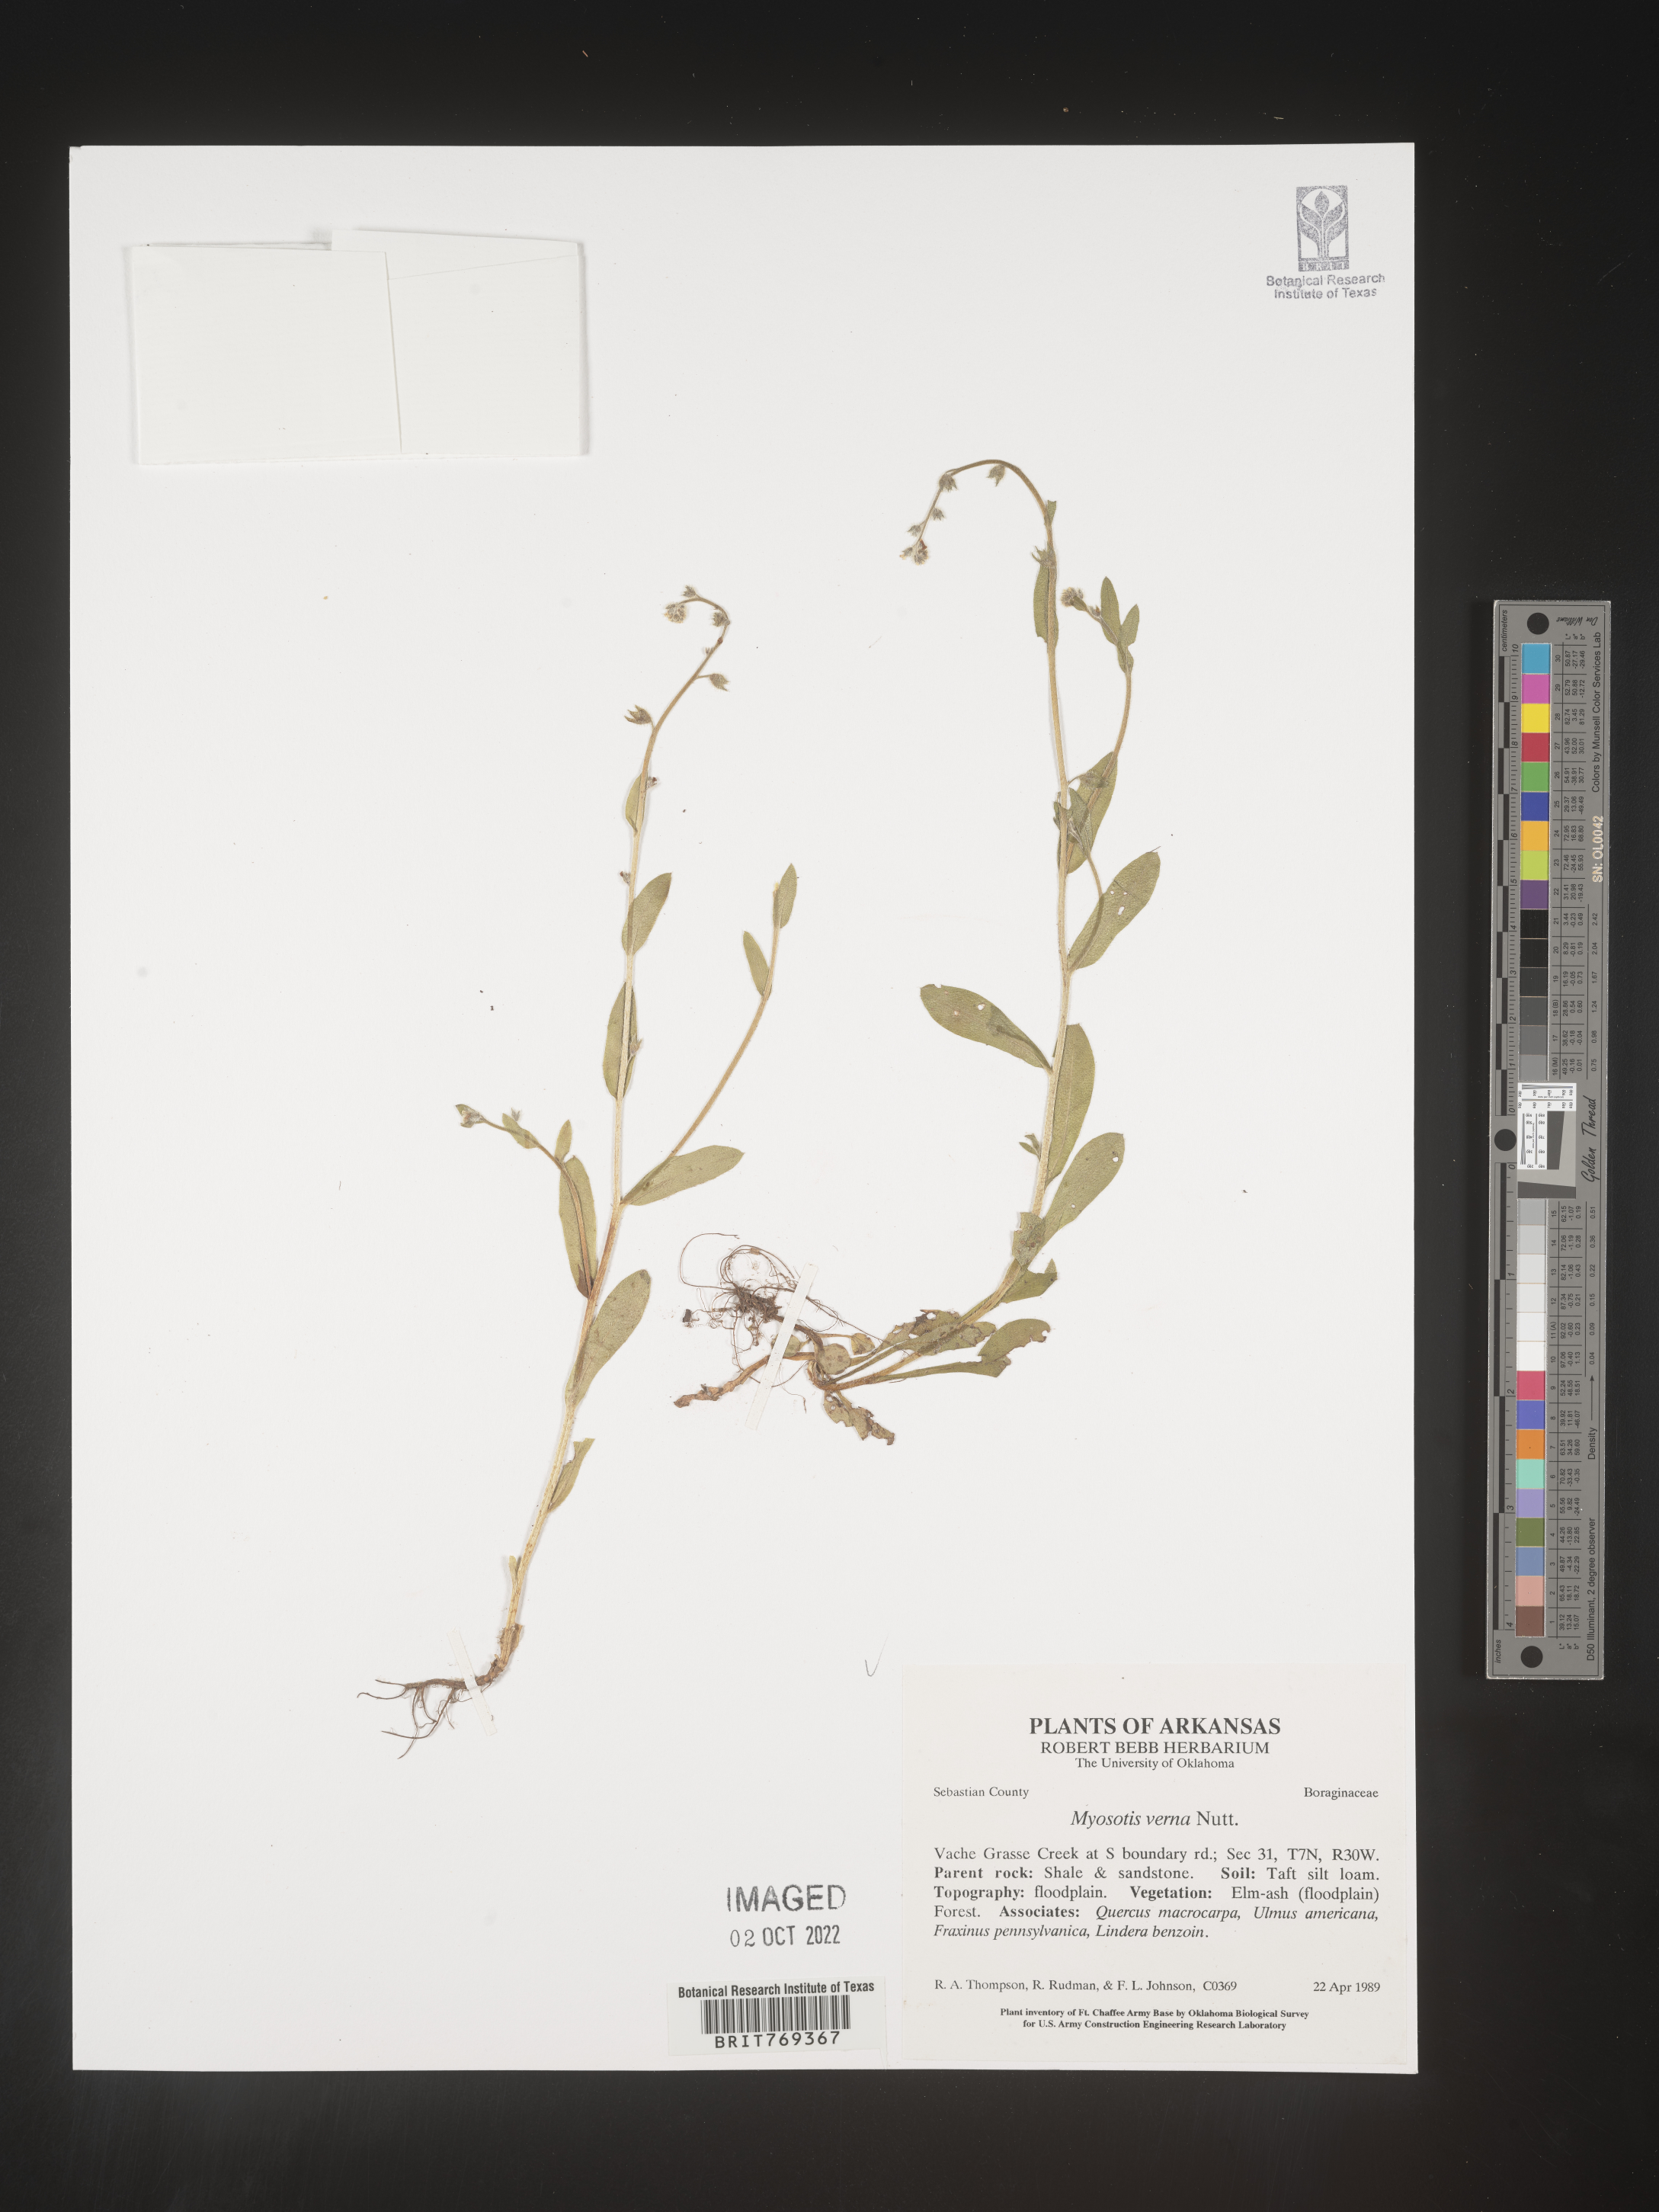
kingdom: Plantae
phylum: Tracheophyta
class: Magnoliopsida
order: Boraginales
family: Boraginaceae
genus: Myosotis
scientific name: Myosotis macrosperma
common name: Large-seed forget-me-not
